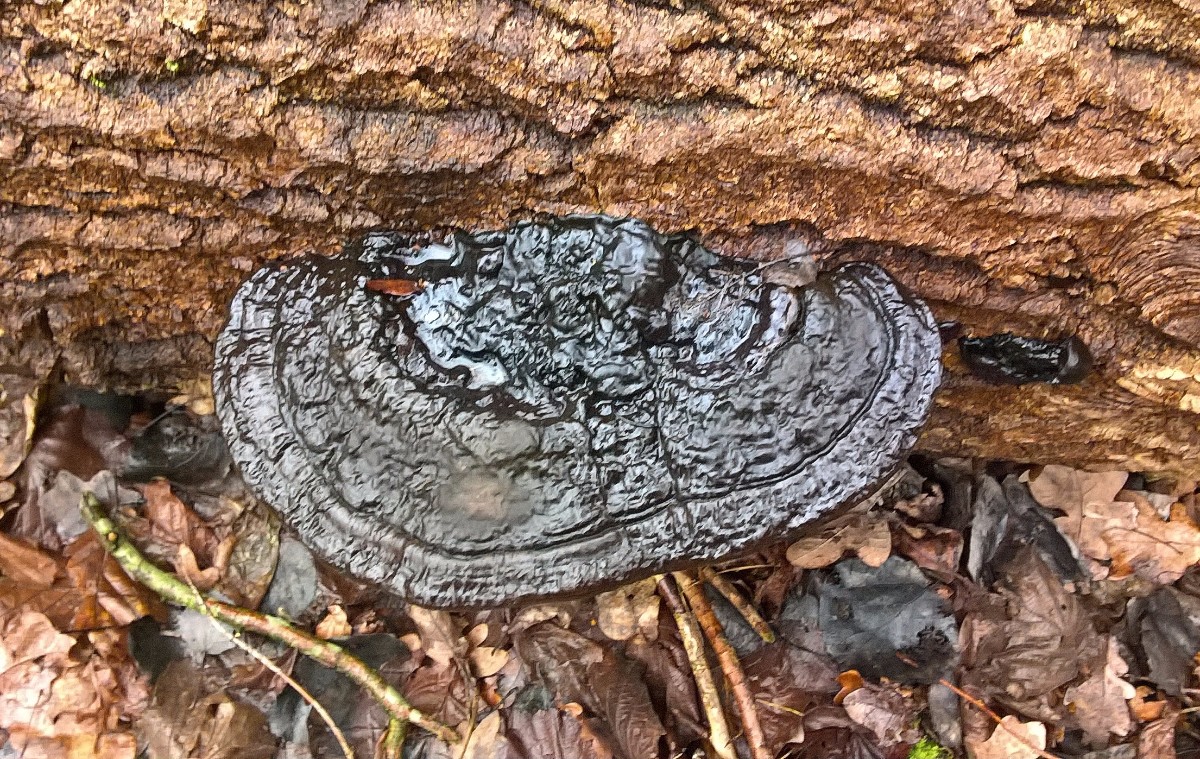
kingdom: Fungi
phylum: Basidiomycota
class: Agaricomycetes
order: Polyporales
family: Polyporaceae
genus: Ganoderma
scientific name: Ganoderma applanatum
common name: flad lakporesvamp
